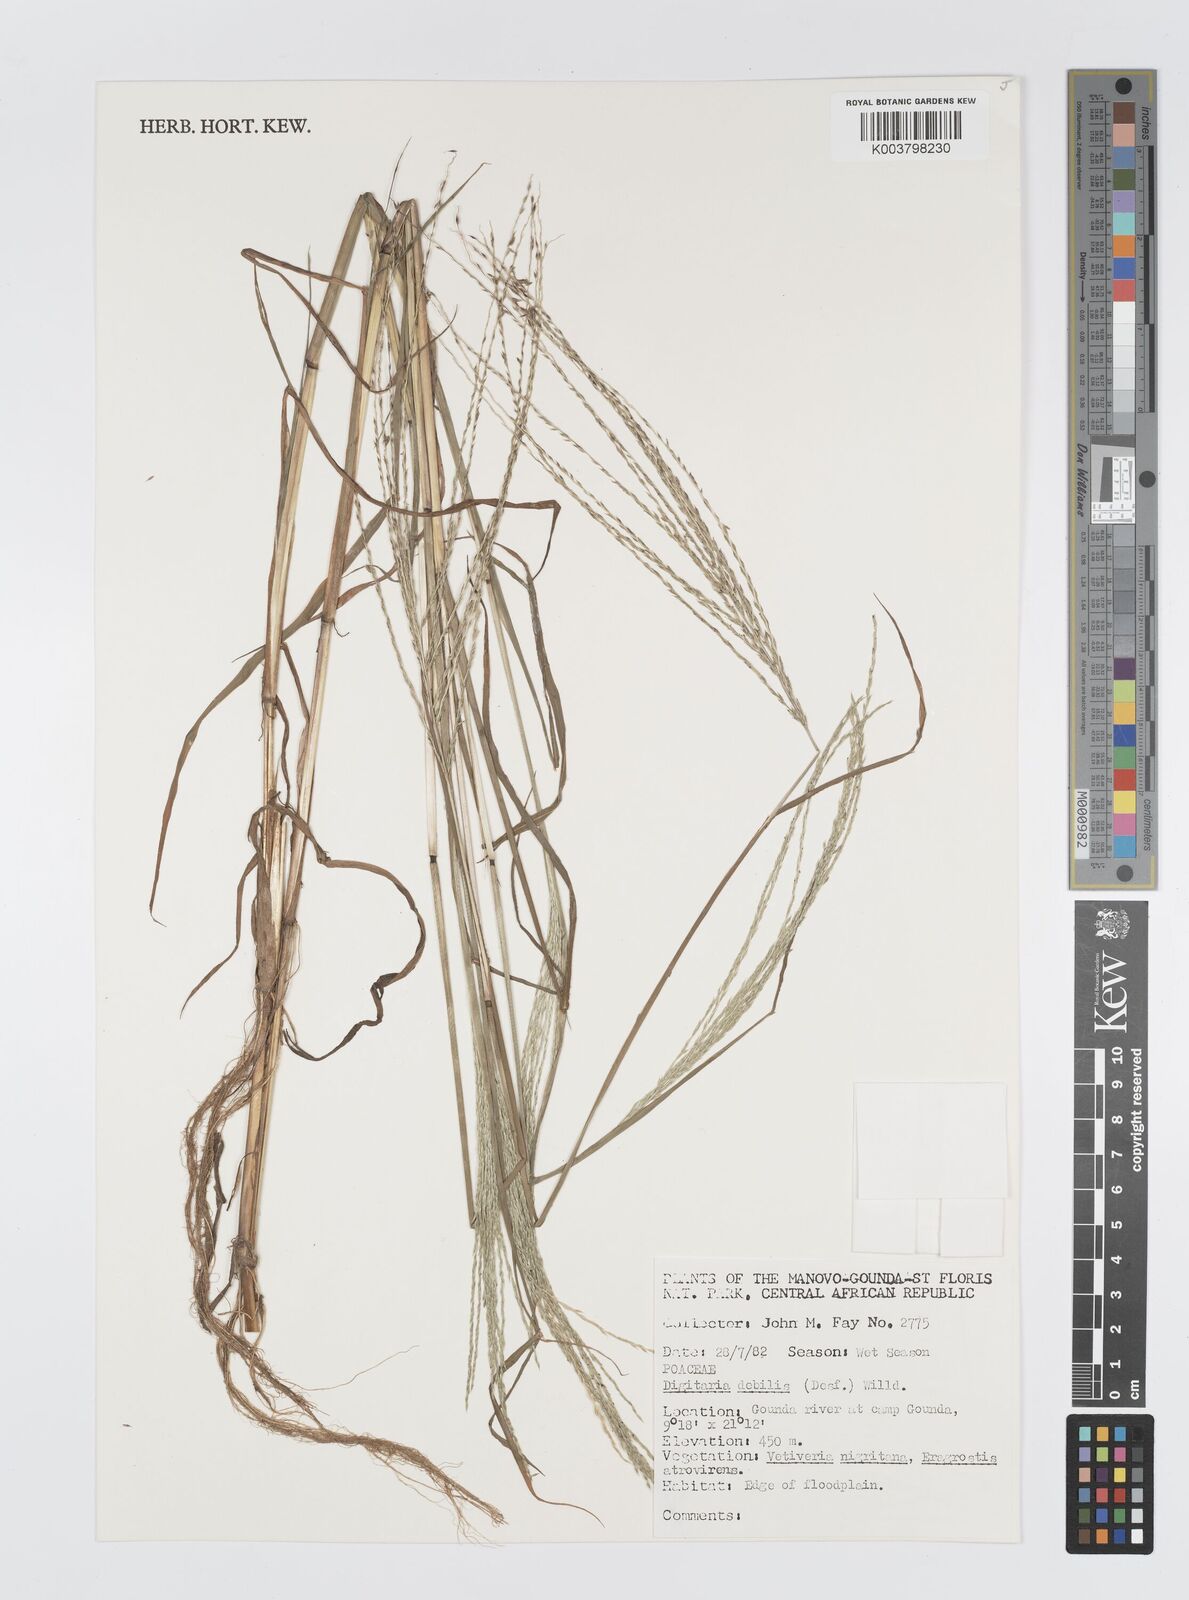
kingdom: Plantae
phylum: Tracheophyta
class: Liliopsida
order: Poales
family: Poaceae
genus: Digitaria
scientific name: Digitaria debilis
